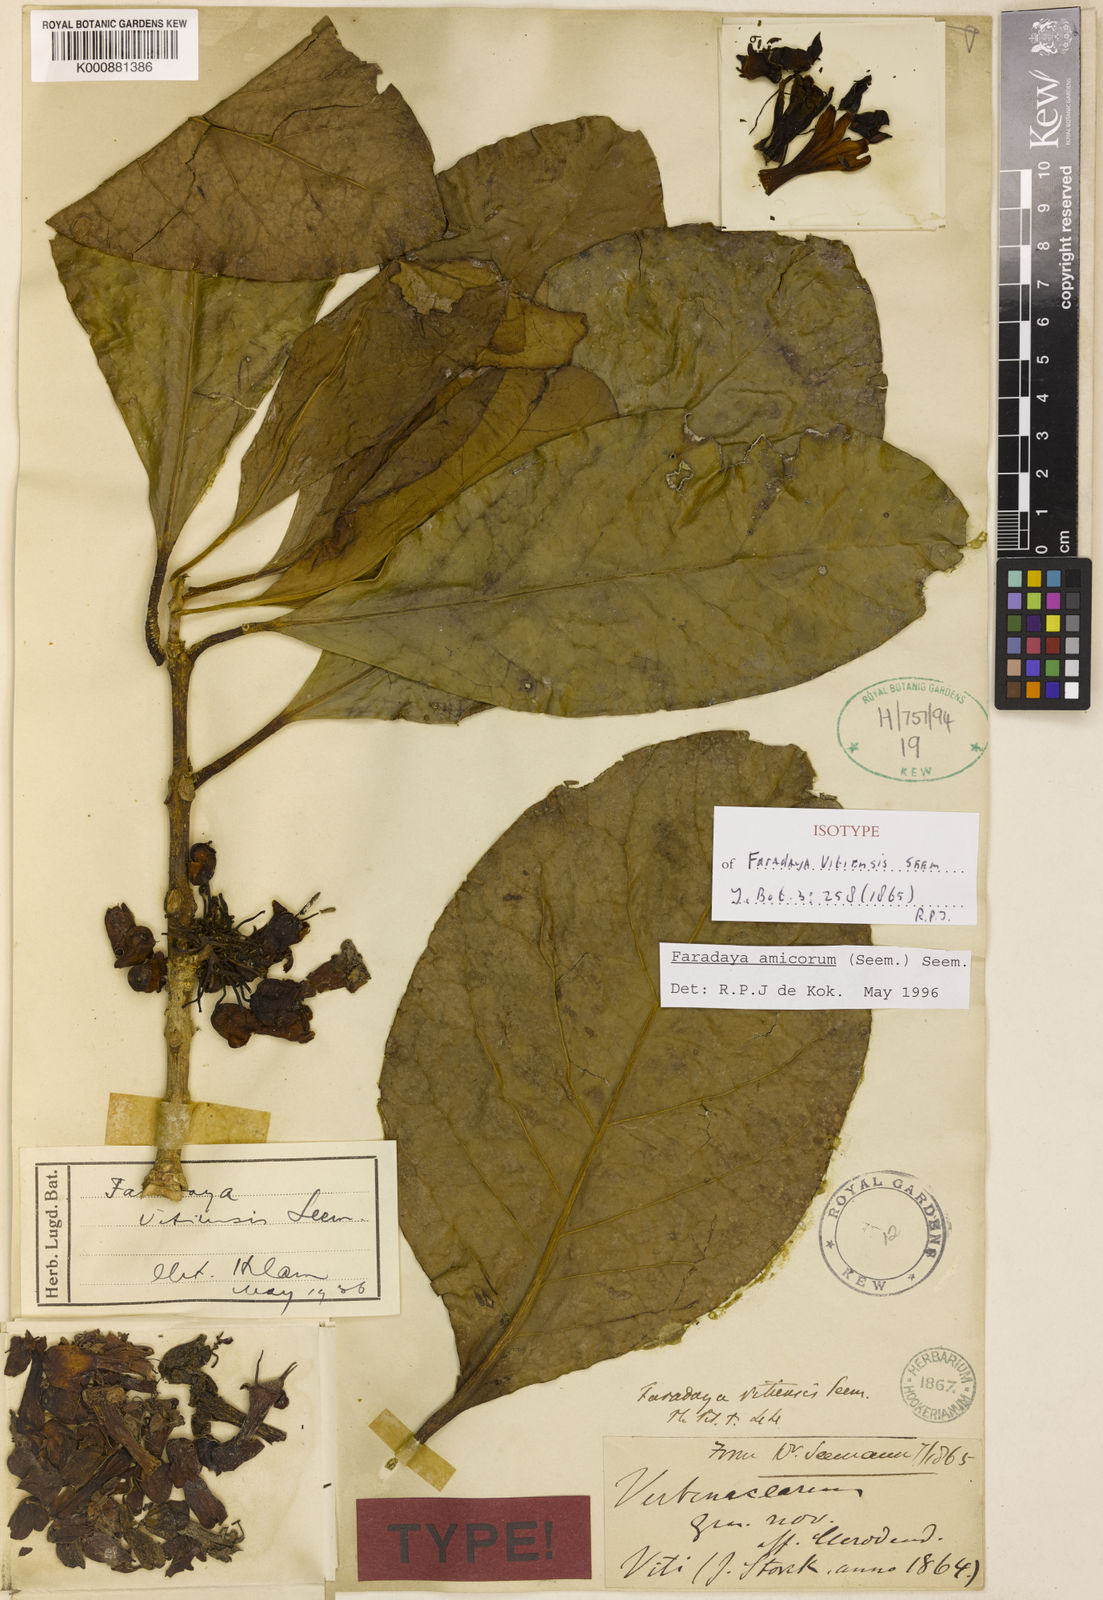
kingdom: Plantae
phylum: Tracheophyta
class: Magnoliopsida
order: Lamiales
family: Lamiaceae
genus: Oxera
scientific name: Oxera amicorum
